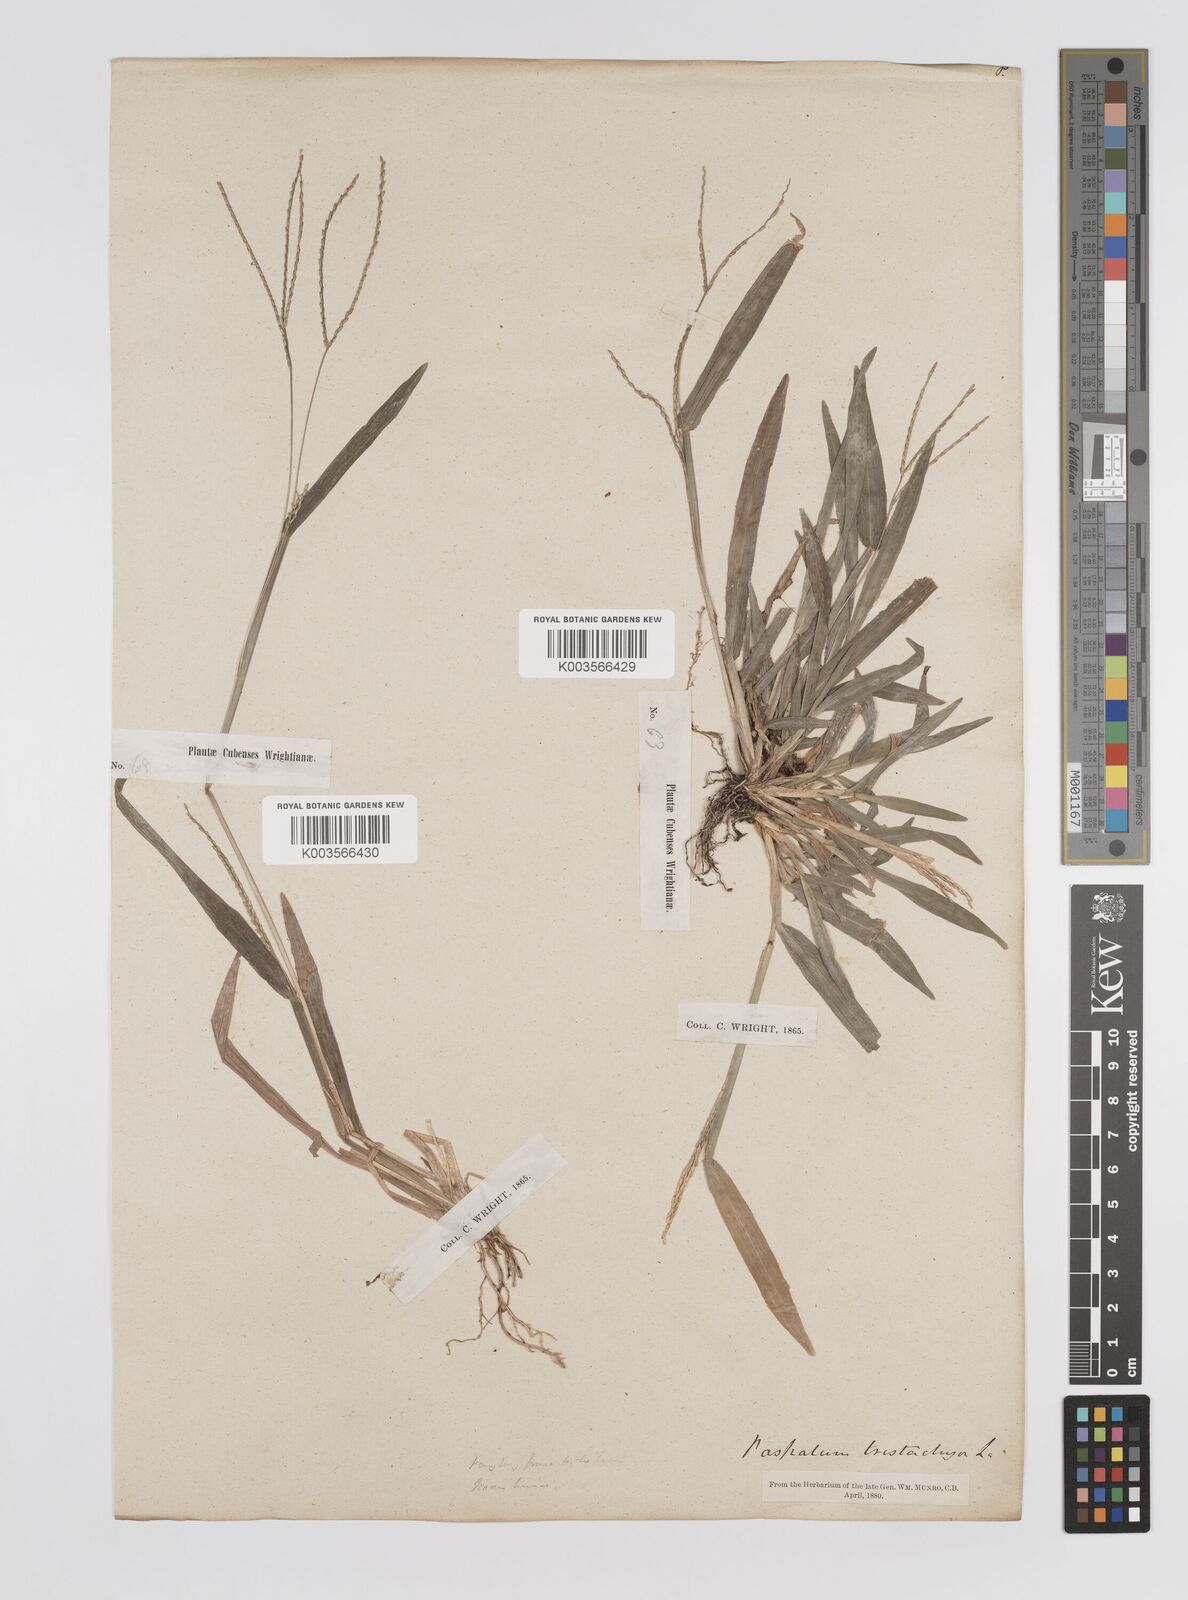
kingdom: Plantae
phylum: Tracheophyta
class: Liliopsida
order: Poales
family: Poaceae
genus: Axonopus
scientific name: Axonopus compressus
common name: American carpet grass
